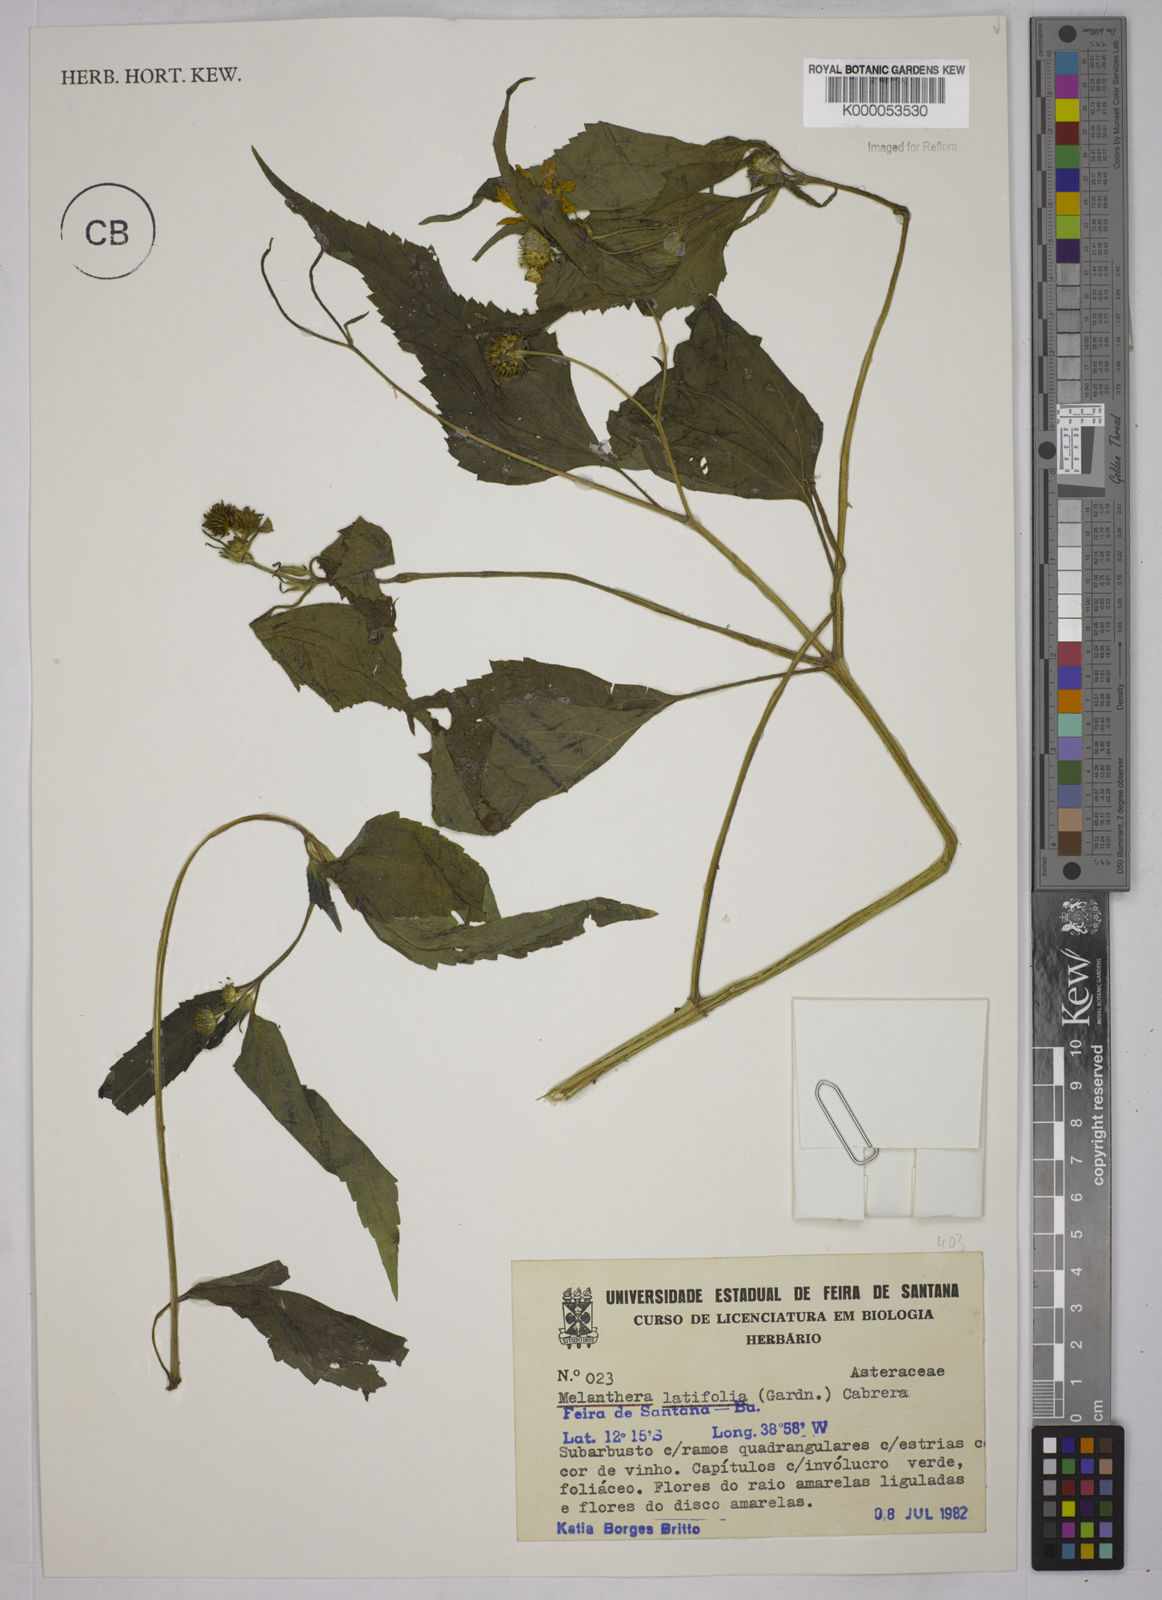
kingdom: Plantae
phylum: Tracheophyta
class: Magnoliopsida
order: Asterales
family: Asteraceae
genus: Echinocephalum
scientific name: Echinocephalum latifolium
